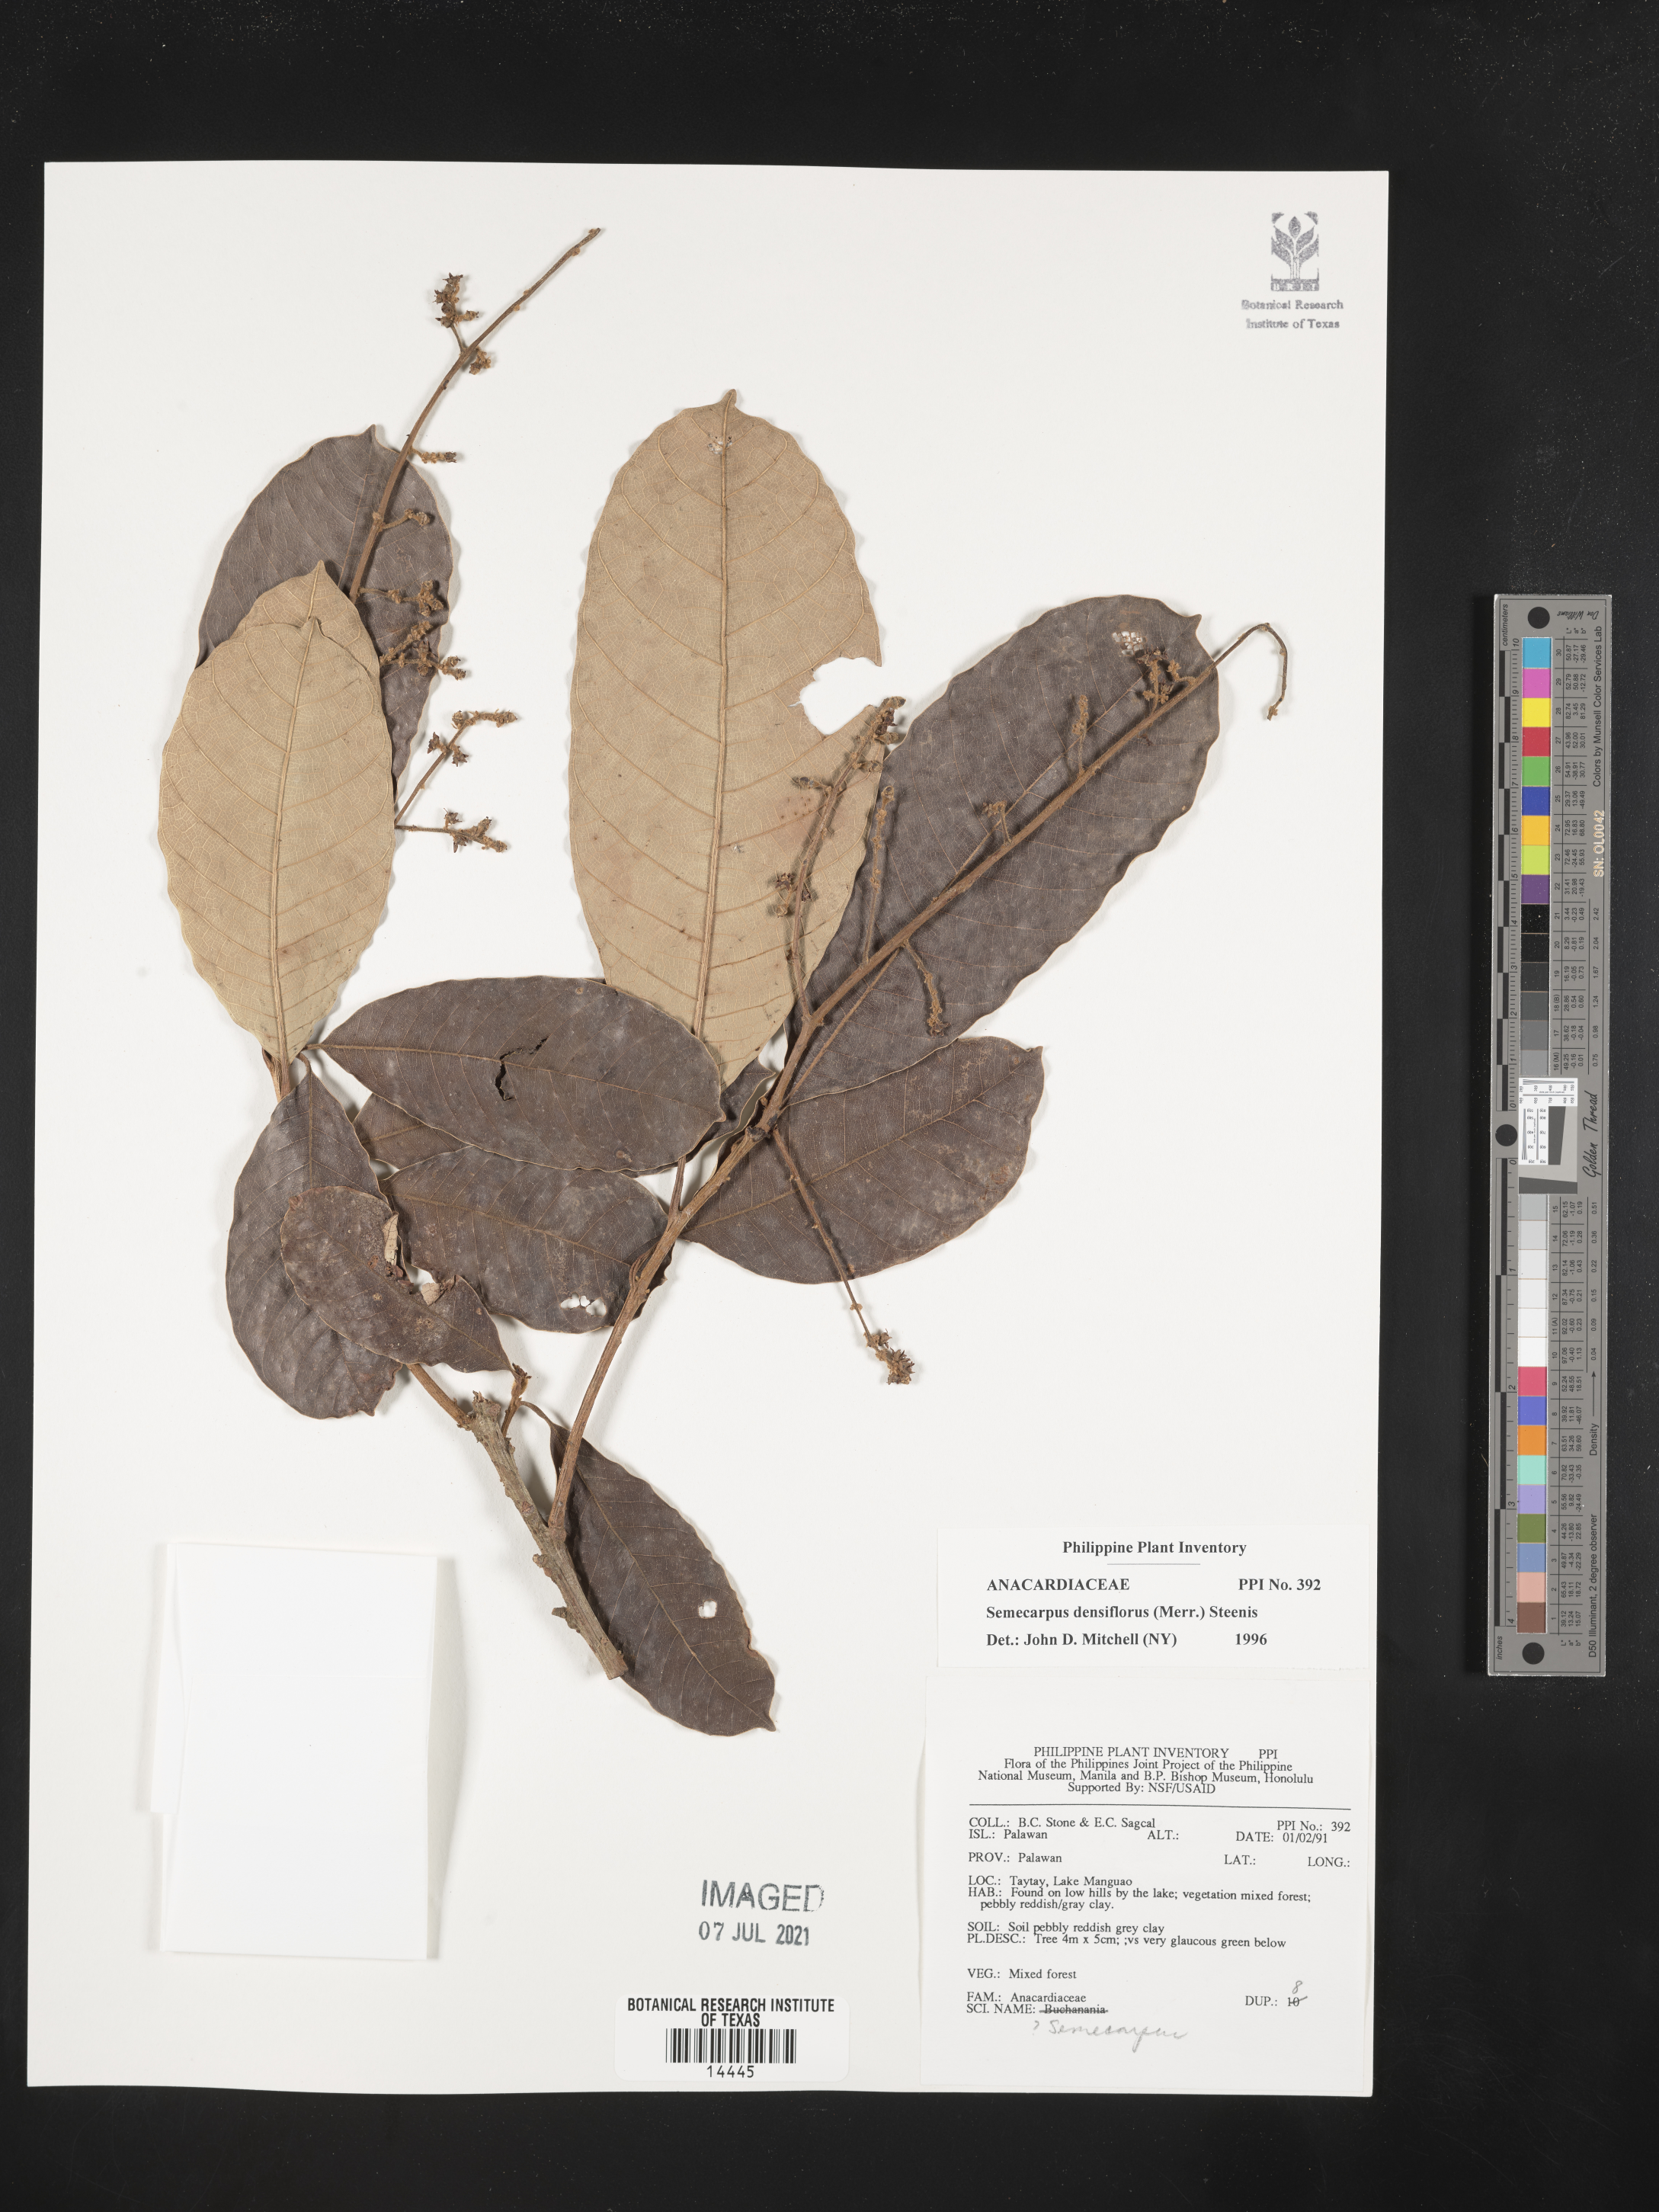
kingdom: Plantae
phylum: Tracheophyta
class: Magnoliopsida
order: Sapindales
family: Anacardiaceae
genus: Semecarpus
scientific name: Semecarpus densiflorus
